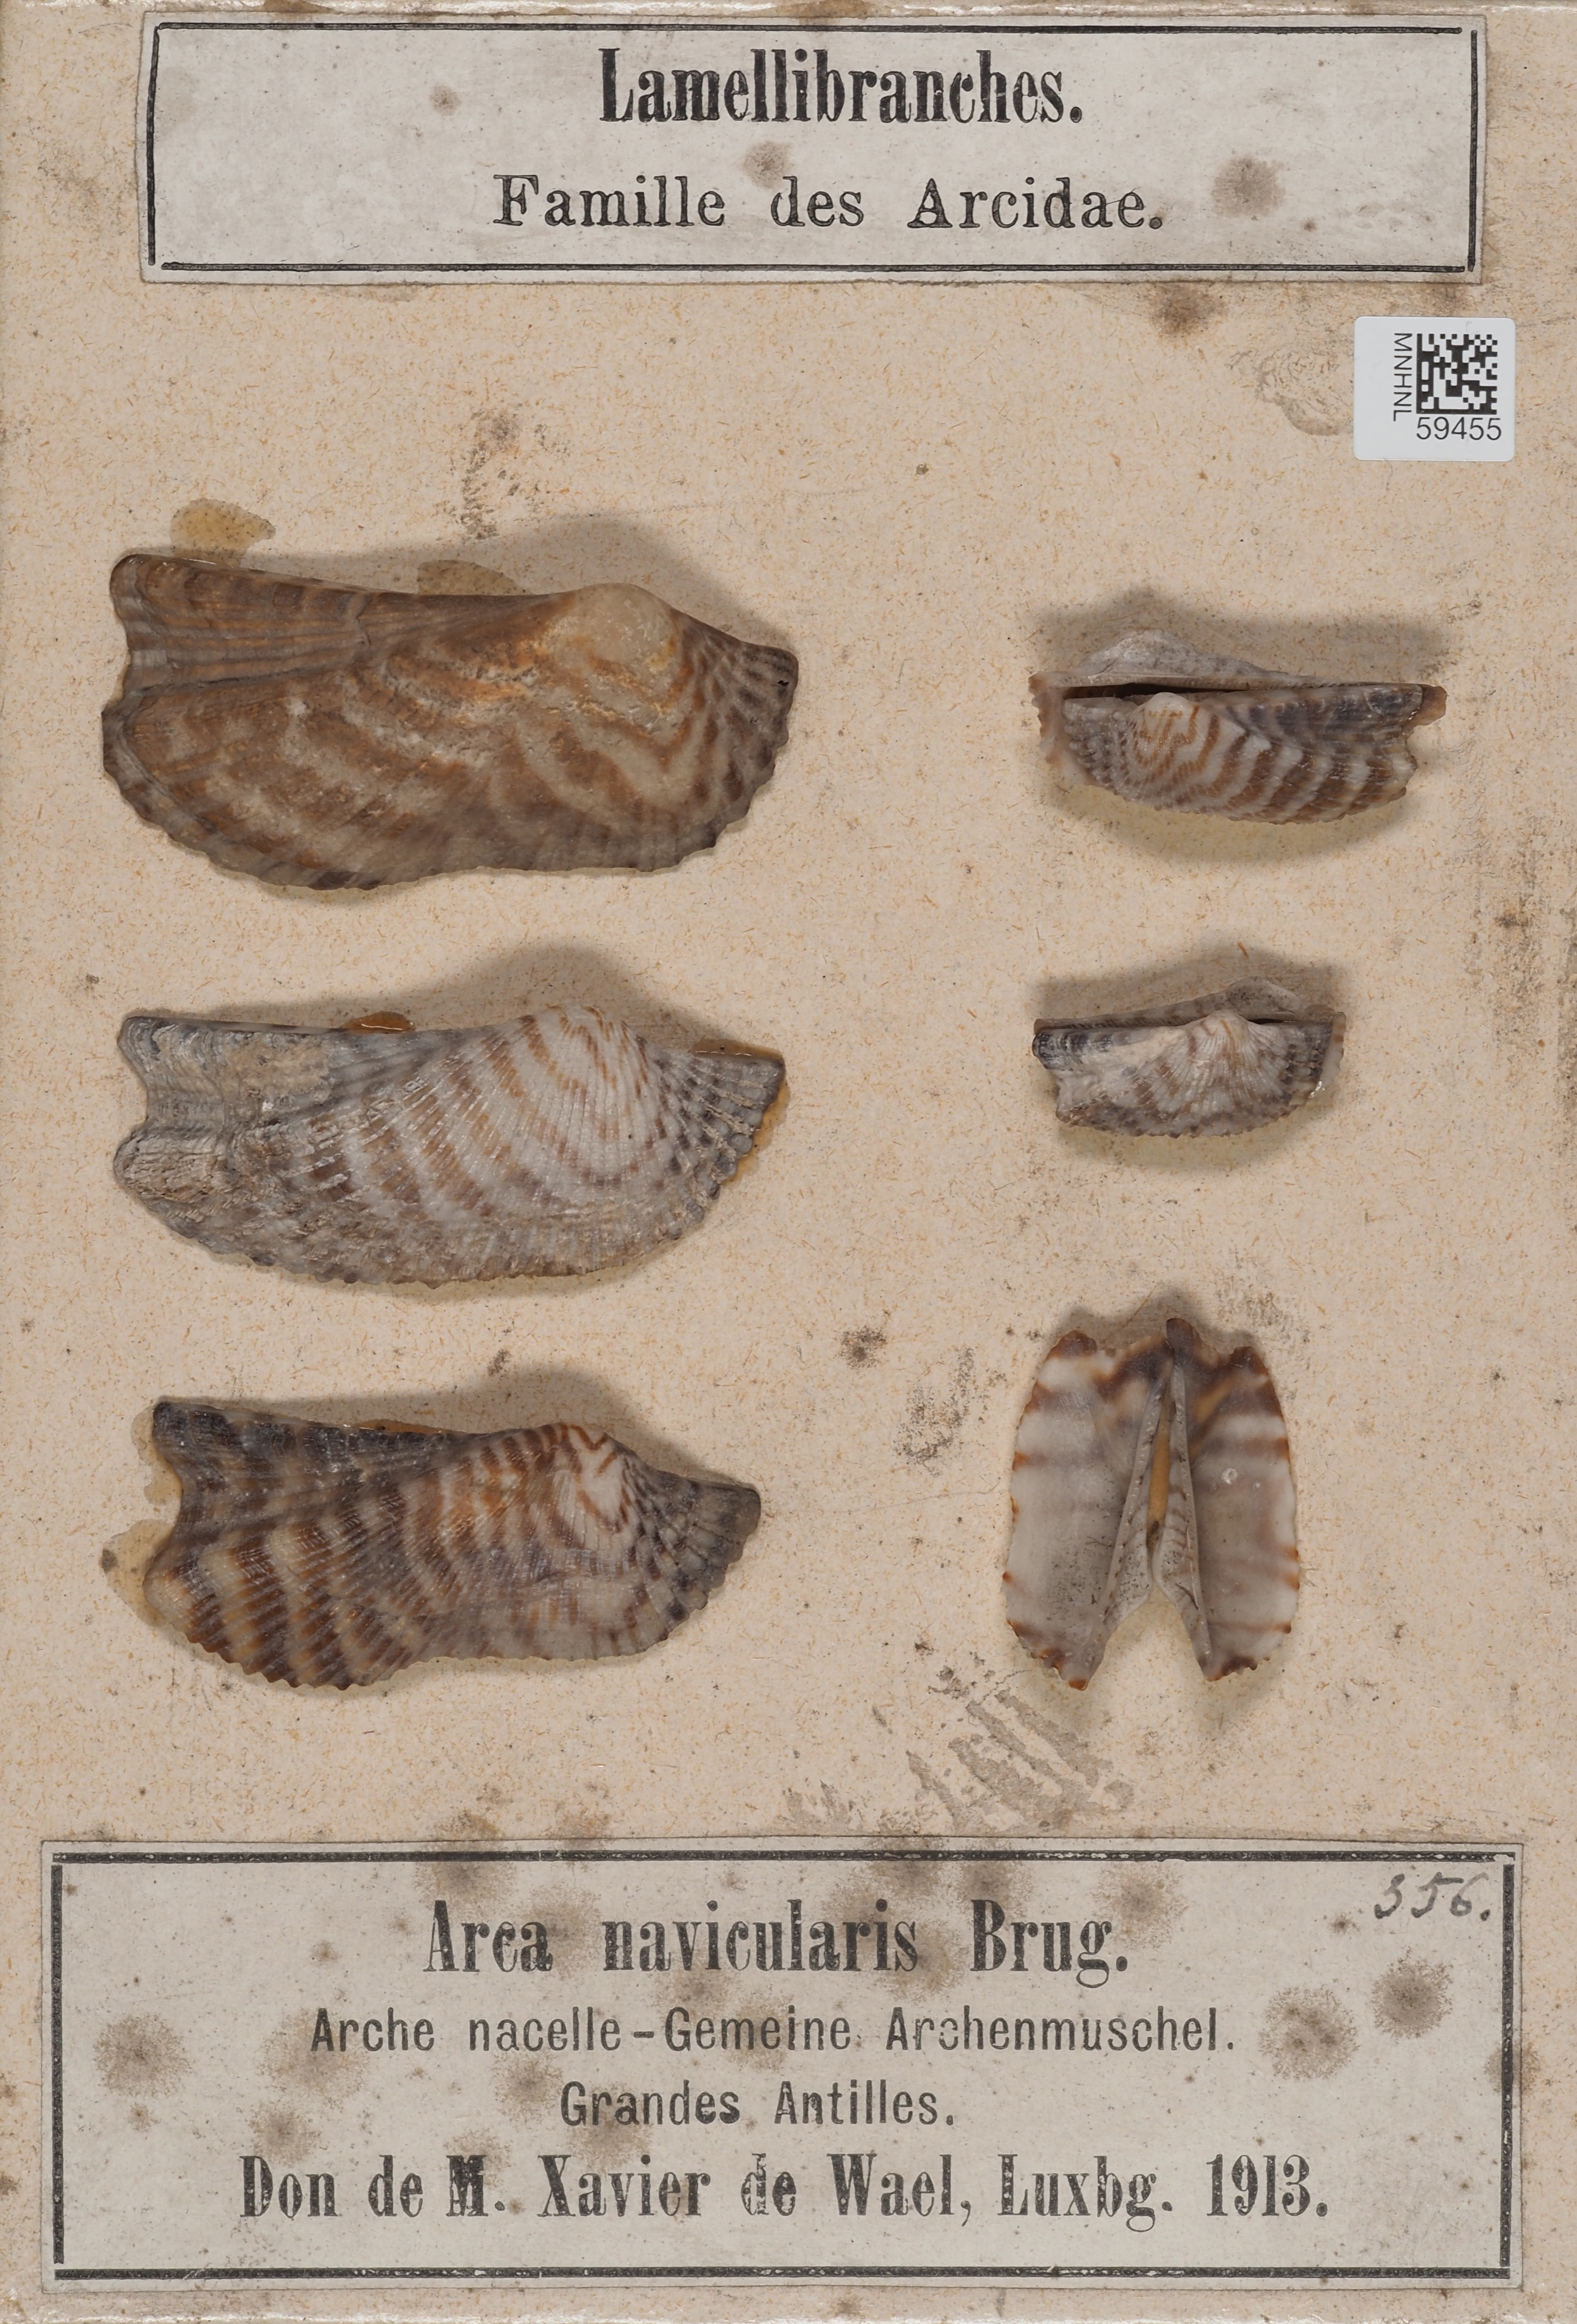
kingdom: Animalia
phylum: Mollusca
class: Bivalvia
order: Arcida
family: Arcidae
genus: Arca
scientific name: Arca navicularis
